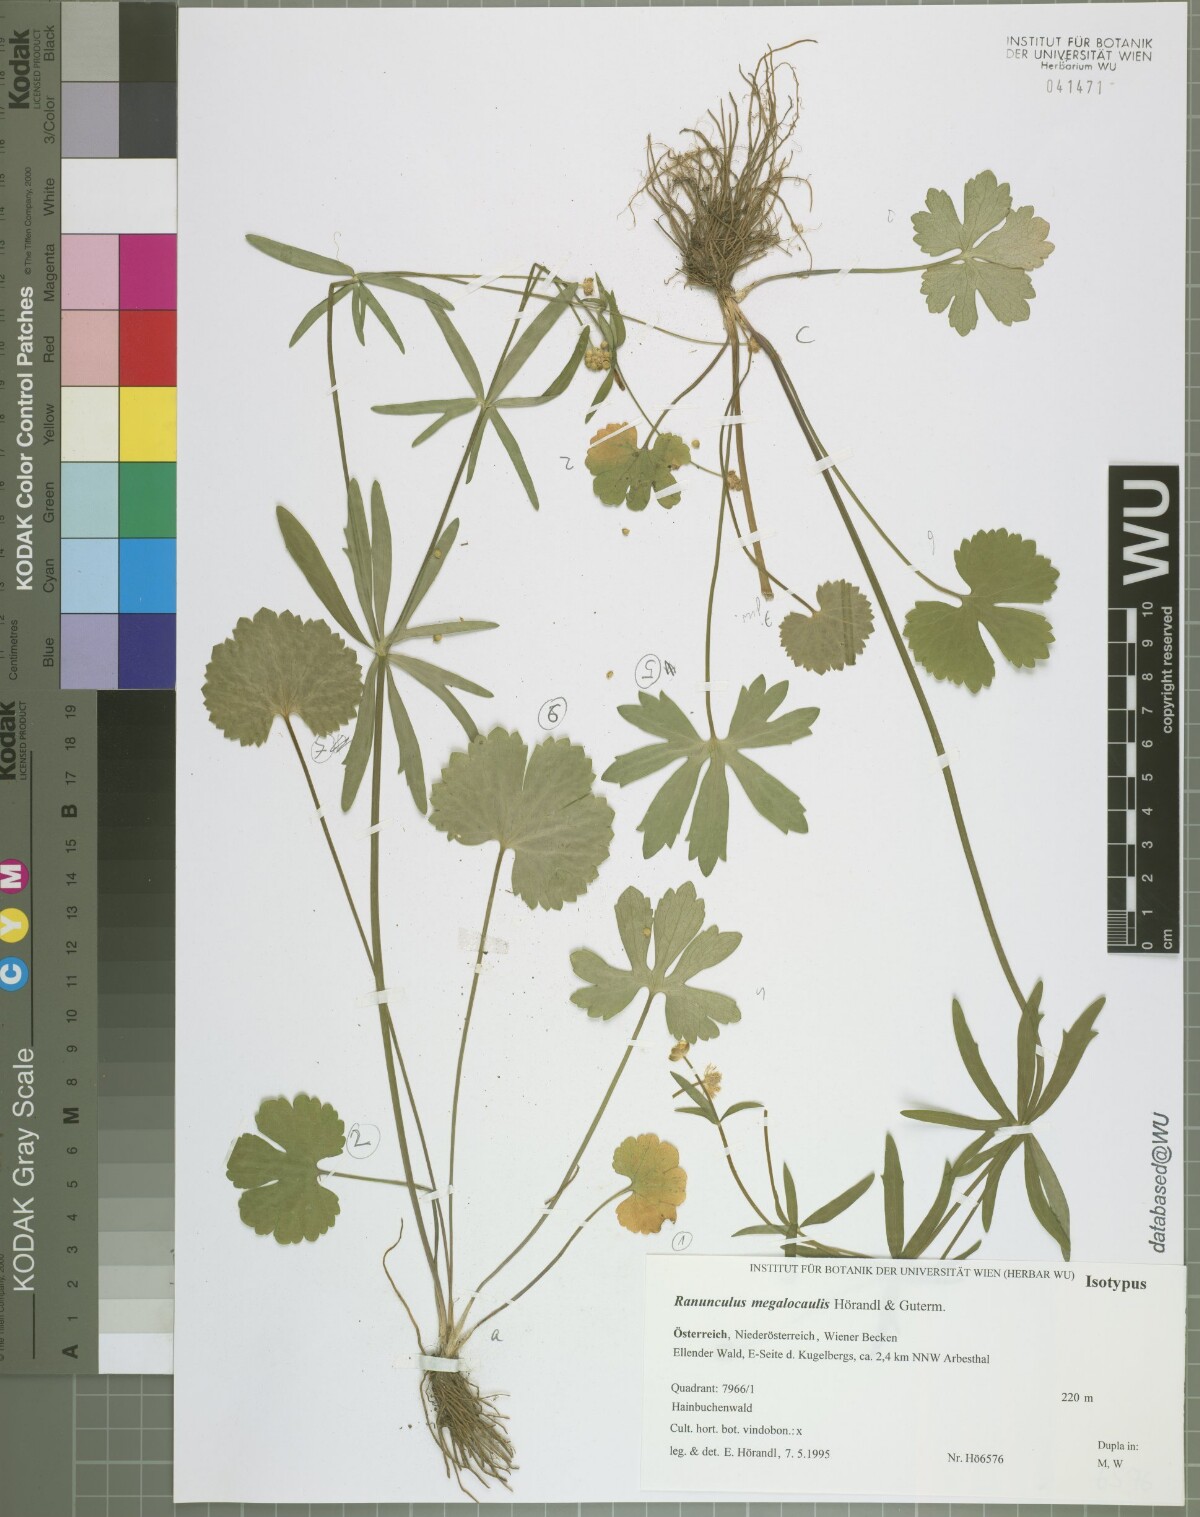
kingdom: Plantae
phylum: Tracheophyta
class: Magnoliopsida
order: Ranunculales
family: Ranunculaceae
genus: Ranunculus
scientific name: Ranunculus megalocaulis
